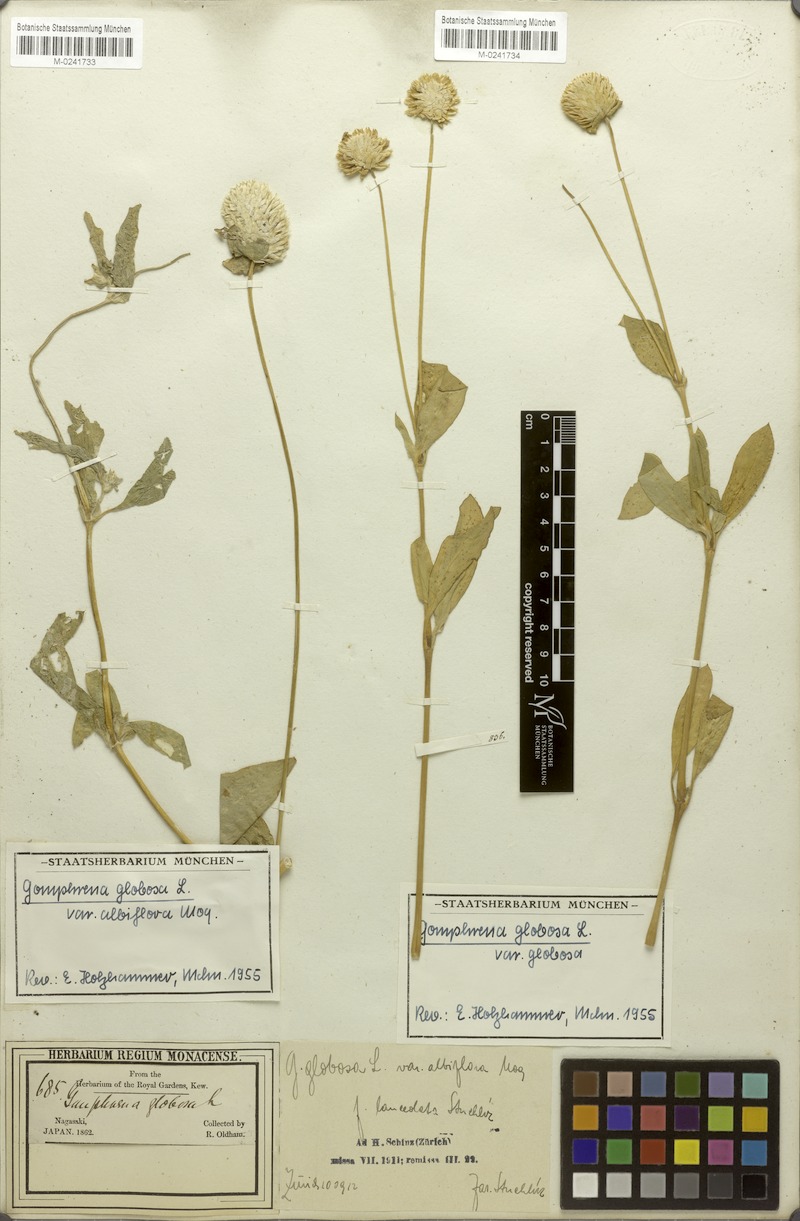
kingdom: Plantae
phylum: Tracheophyta
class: Magnoliopsida
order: Caryophyllales
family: Amaranthaceae
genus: Gomphrena
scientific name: Gomphrena filaginoides
